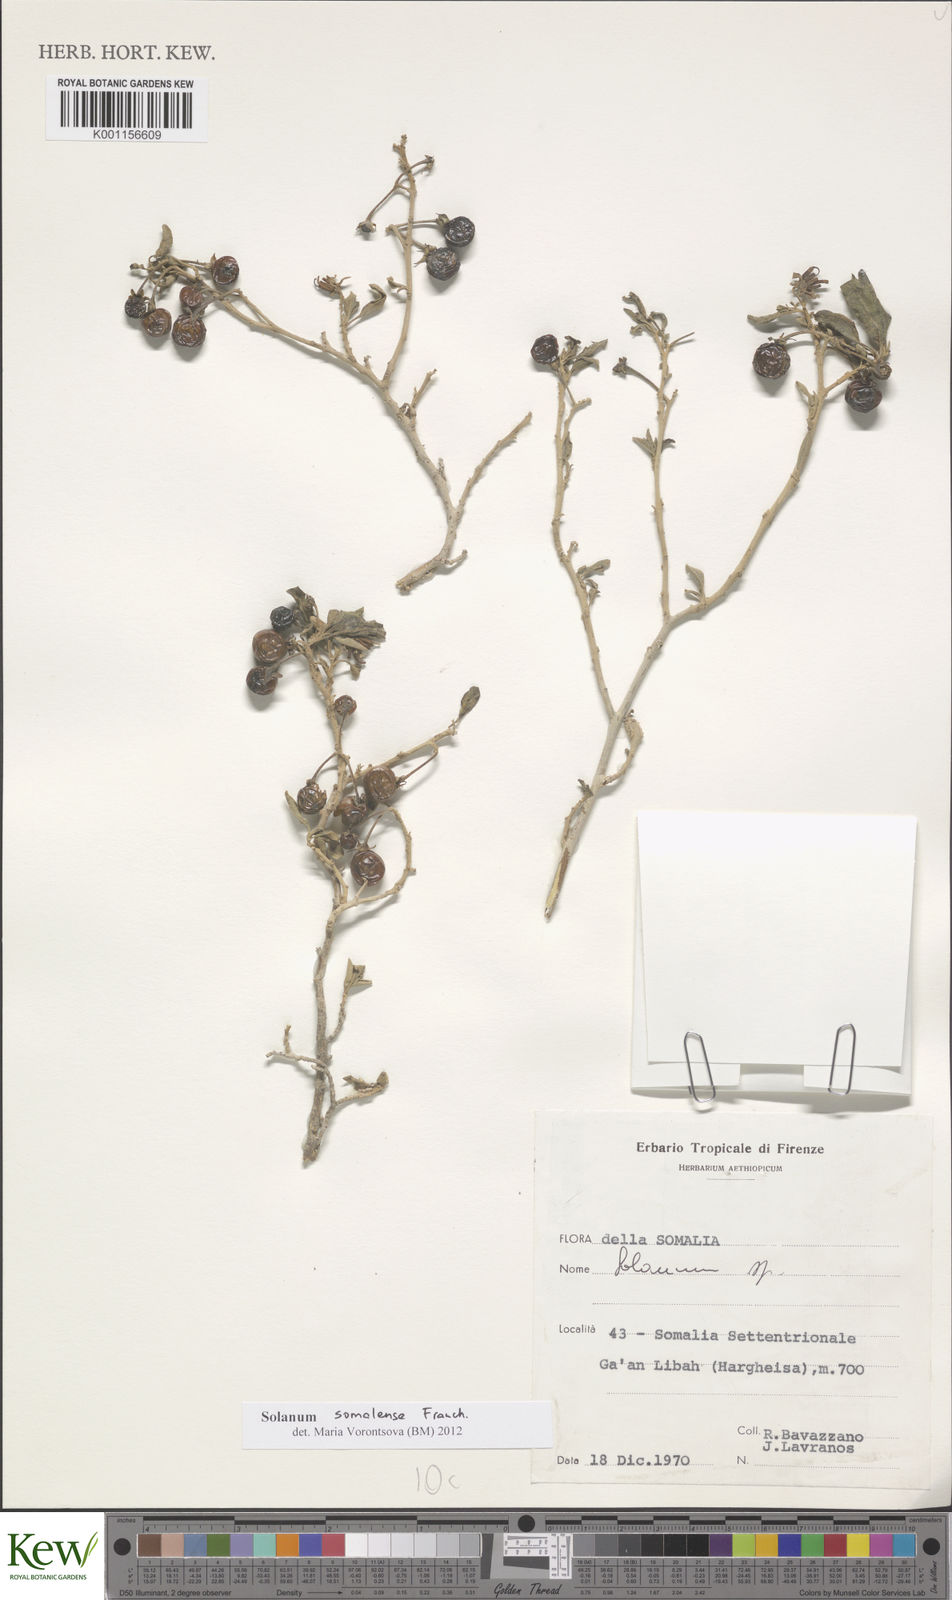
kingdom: Plantae
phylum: Tracheophyta
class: Magnoliopsida
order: Solanales
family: Solanaceae
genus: Solanum
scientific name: Solanum somalense
